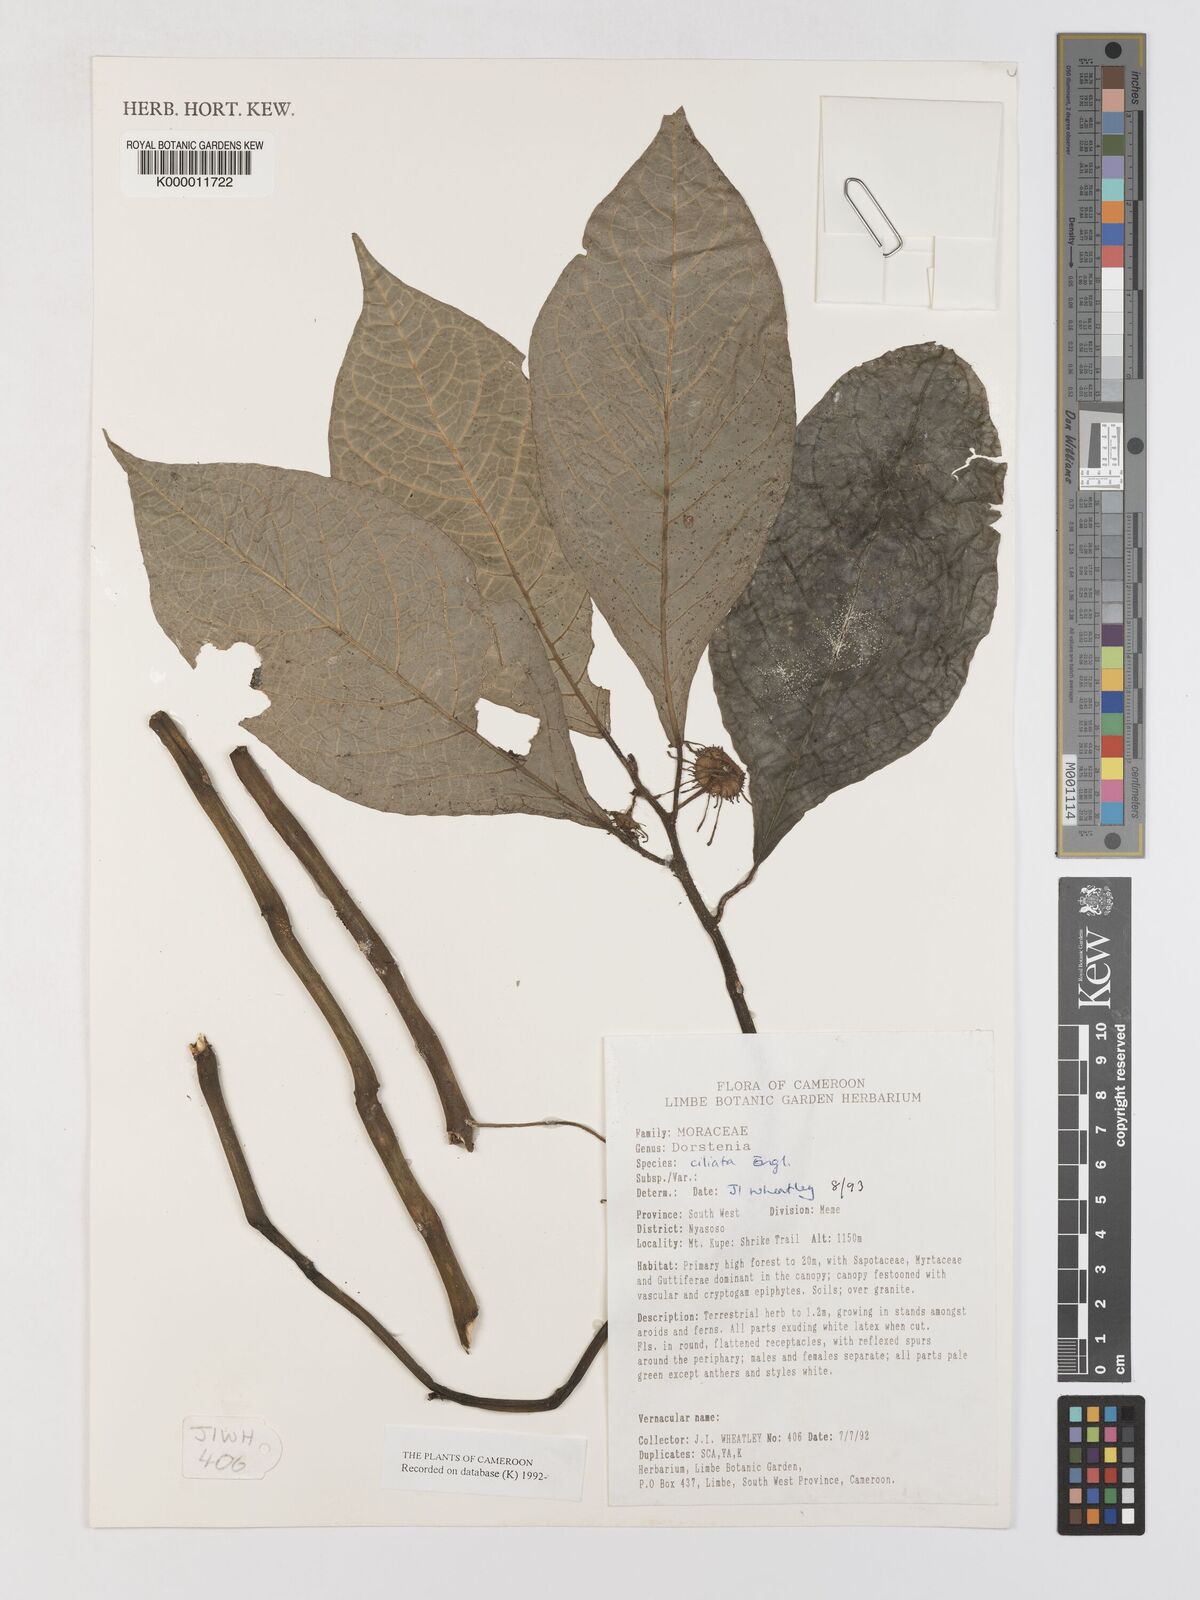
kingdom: Plantae
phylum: Tracheophyta
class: Magnoliopsida
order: Rosales
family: Moraceae
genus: Dorstenia
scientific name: Dorstenia ciliata
